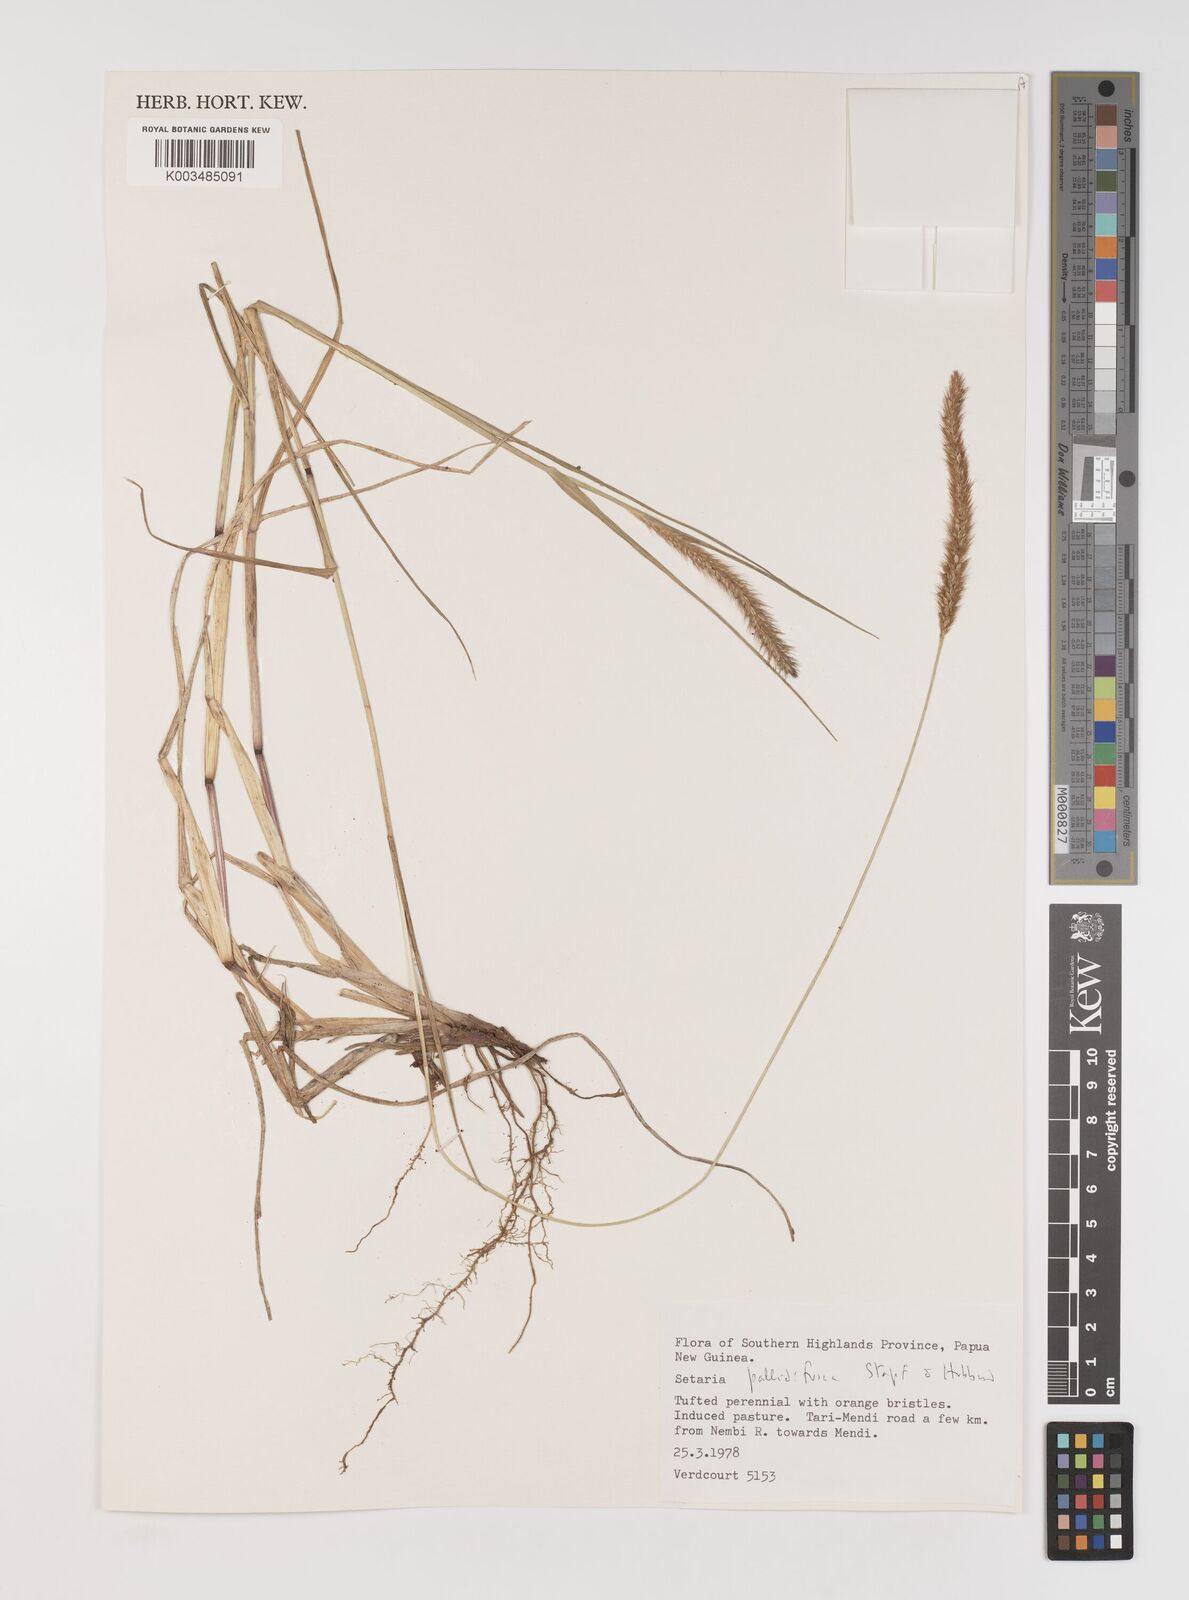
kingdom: Plantae
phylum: Tracheophyta
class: Liliopsida
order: Poales
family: Poaceae
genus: Setaria
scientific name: Setaria pumila
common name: Yellow bristle-grass
